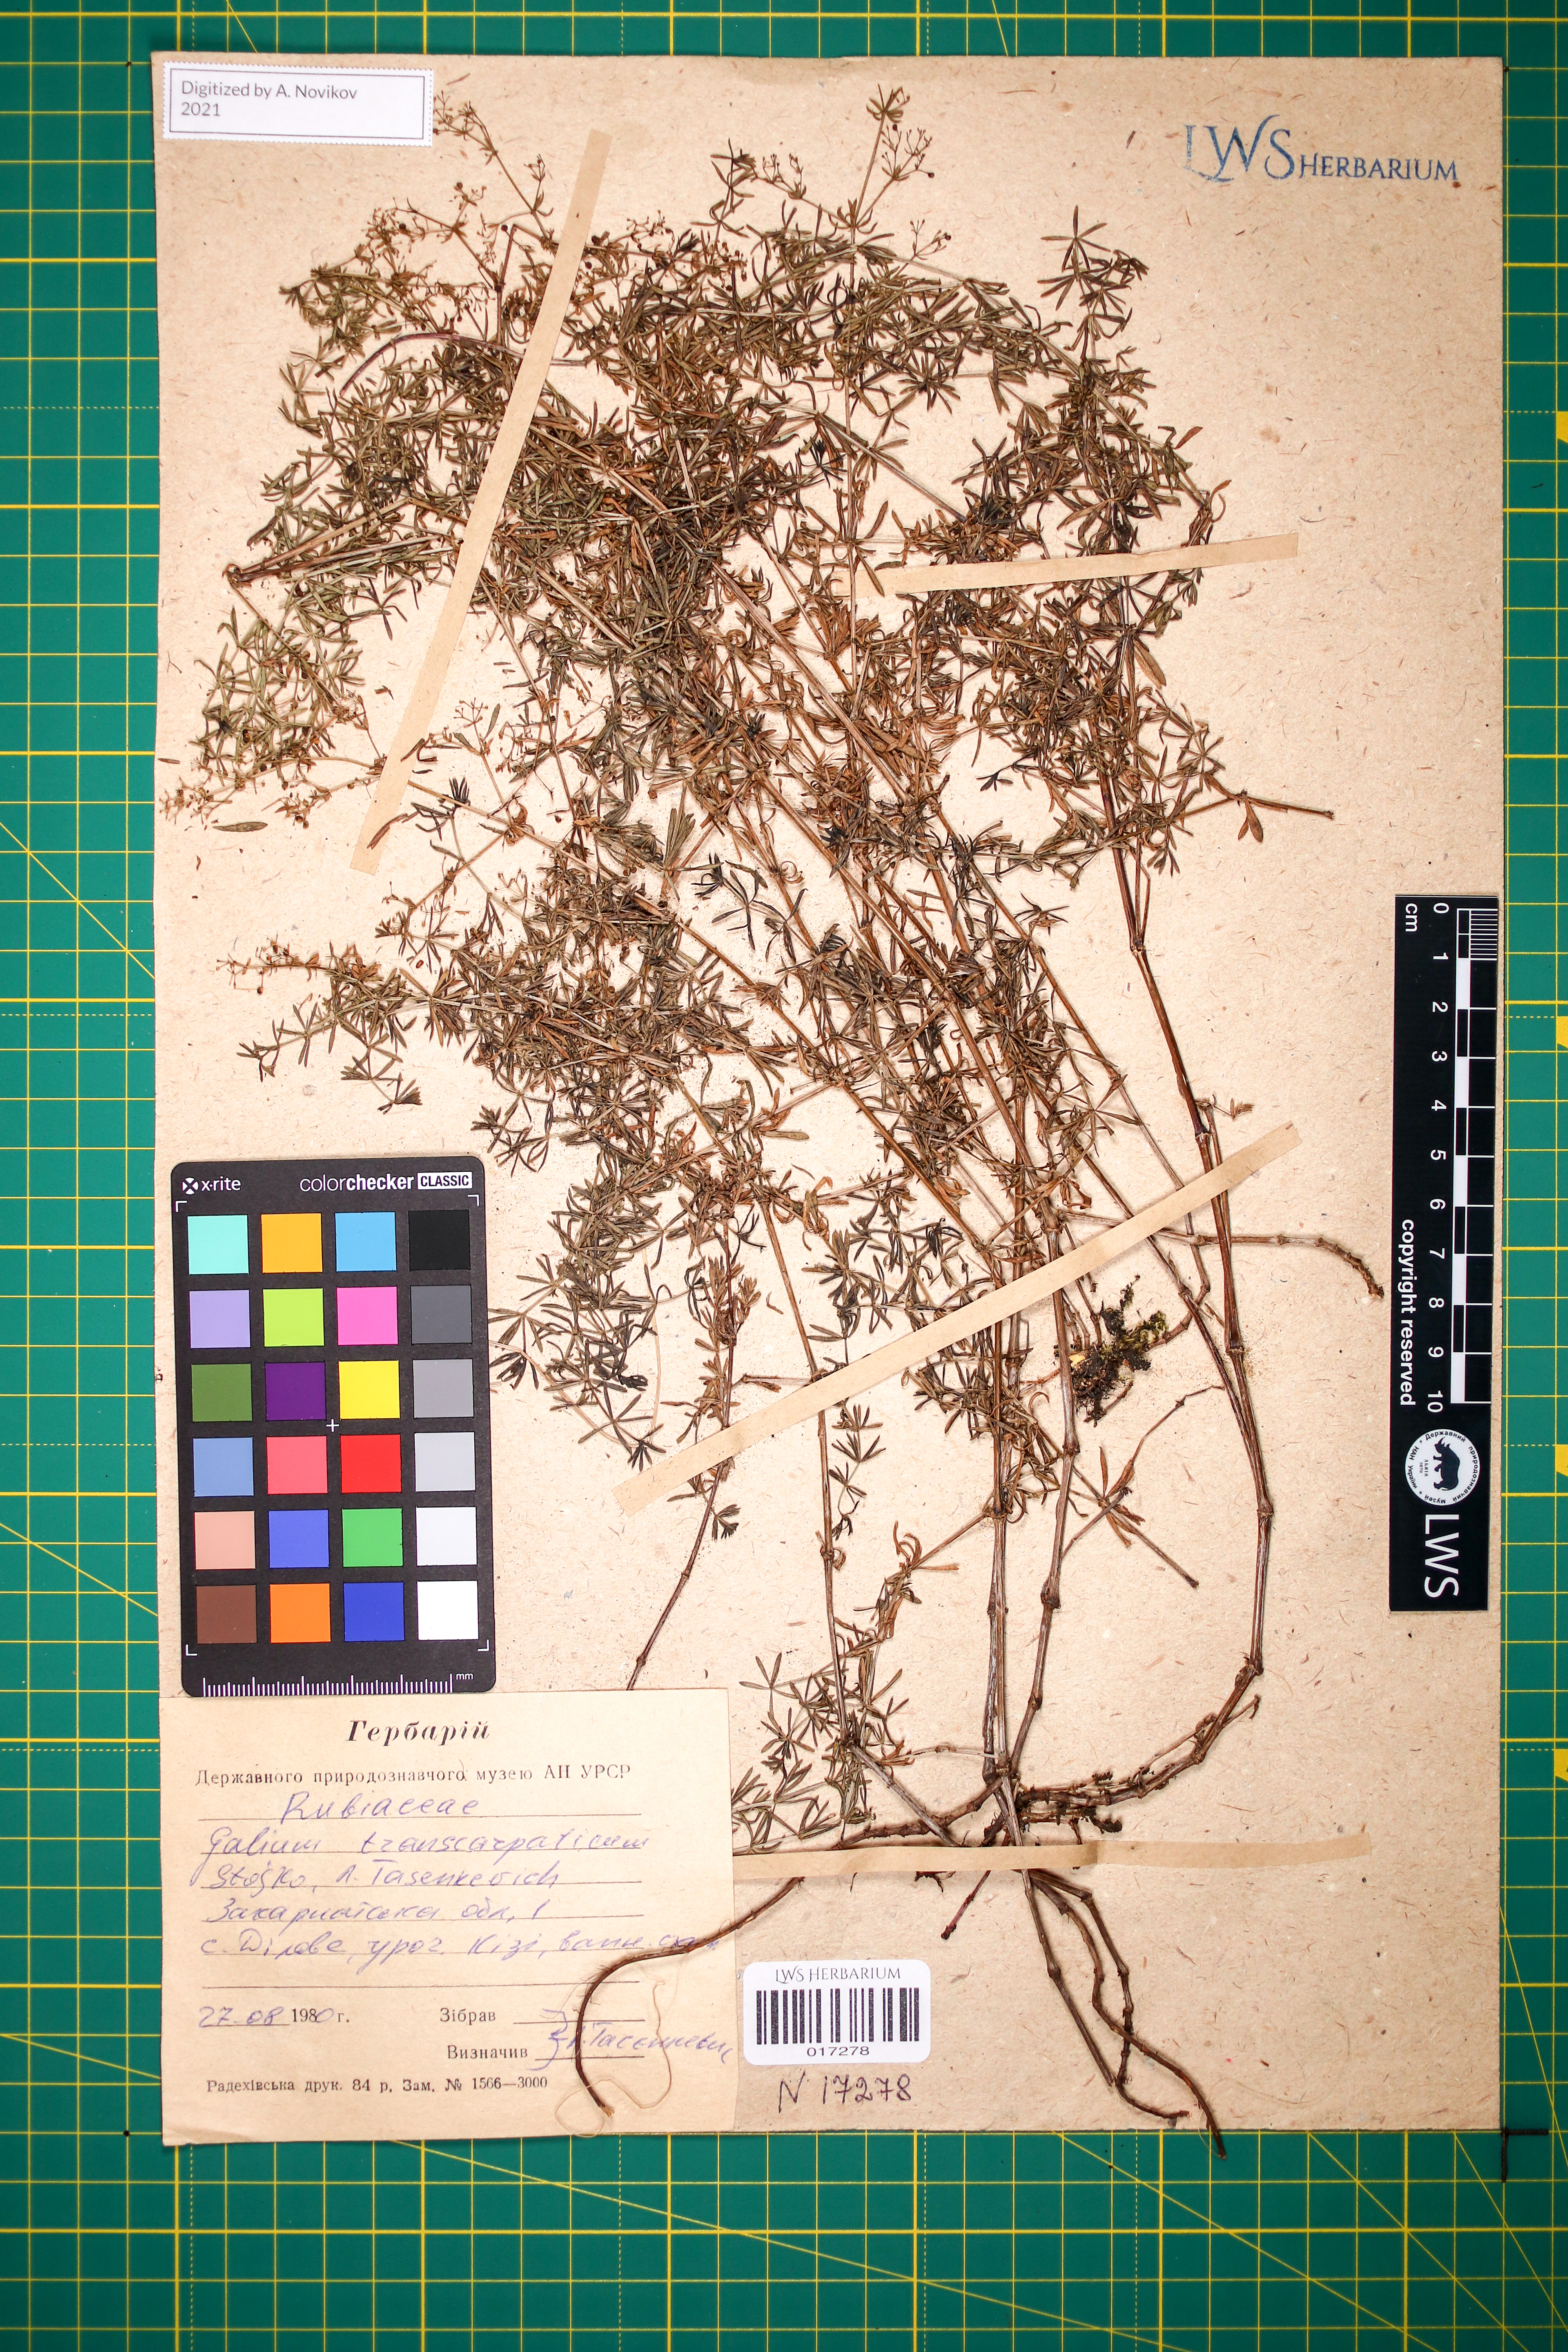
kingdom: Plantae
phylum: Tracheophyta
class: Magnoliopsida
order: Gentianales
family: Rubiaceae
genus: Galium
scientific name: Galium transcarpaticum
